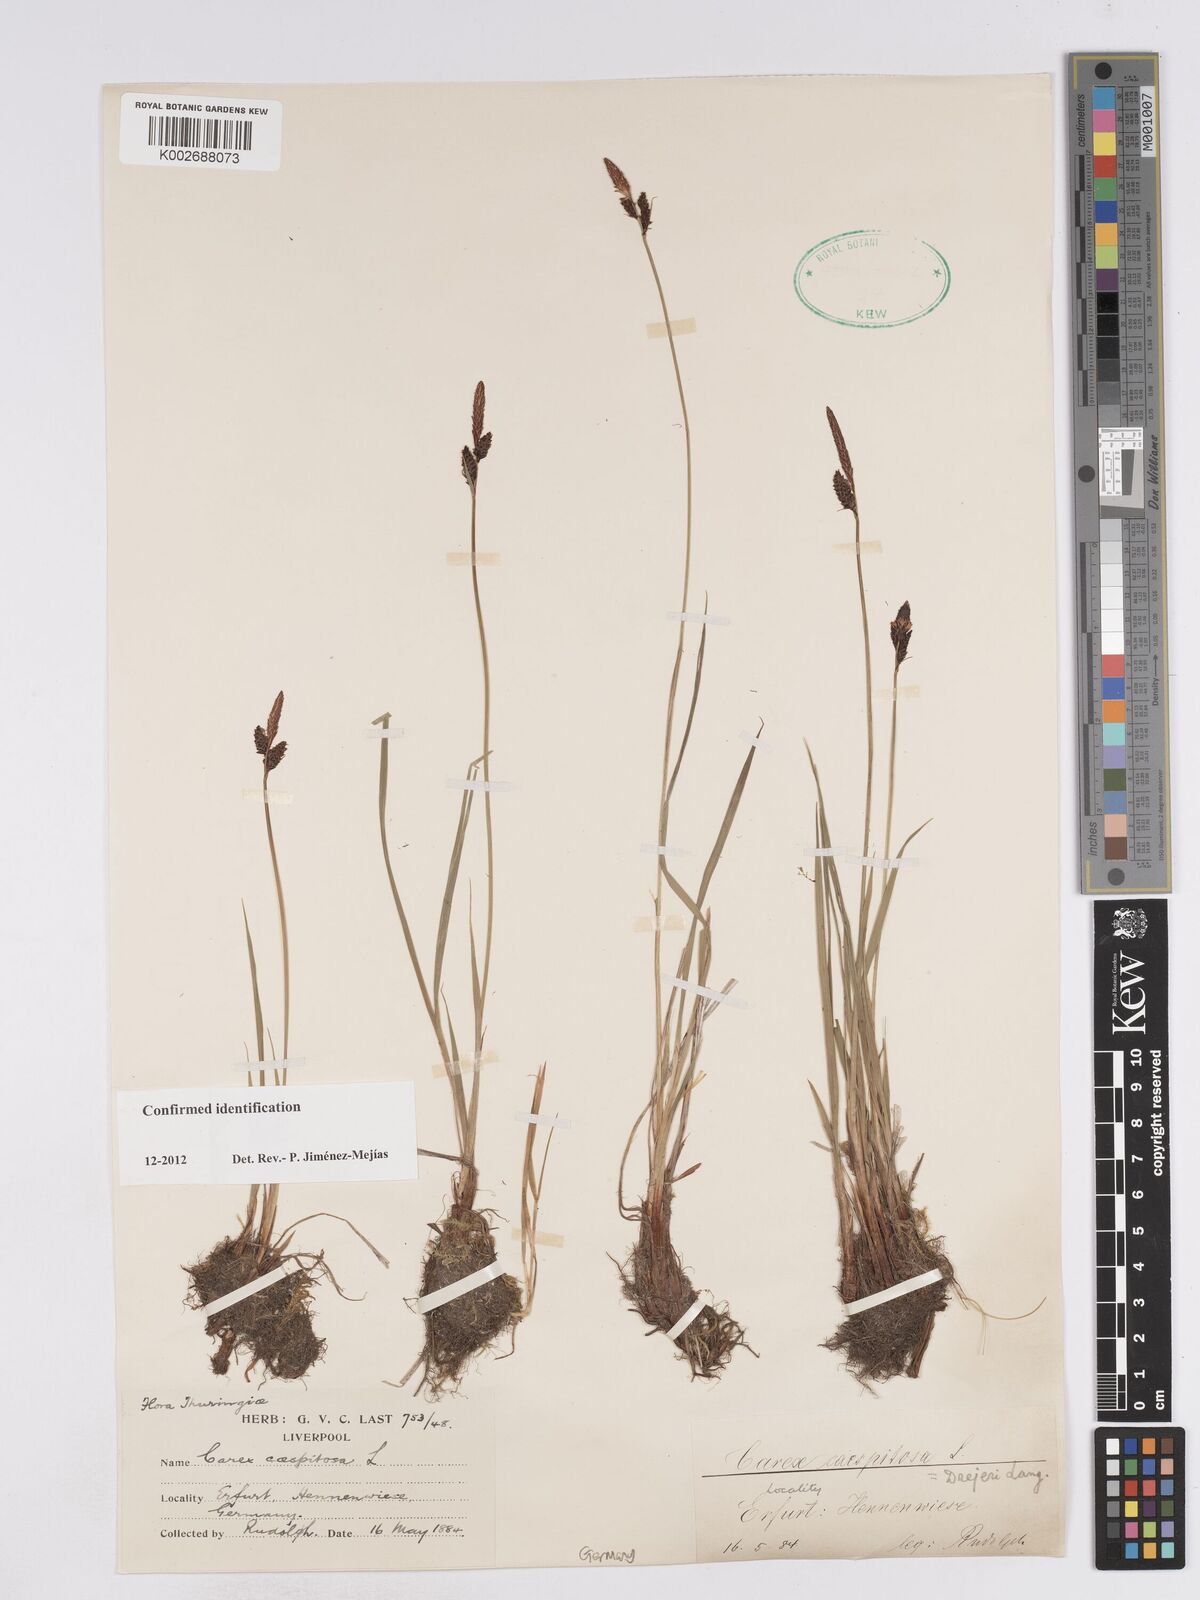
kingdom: Plantae
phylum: Tracheophyta
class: Liliopsida
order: Poales
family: Cyperaceae
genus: Carex
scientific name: Carex
